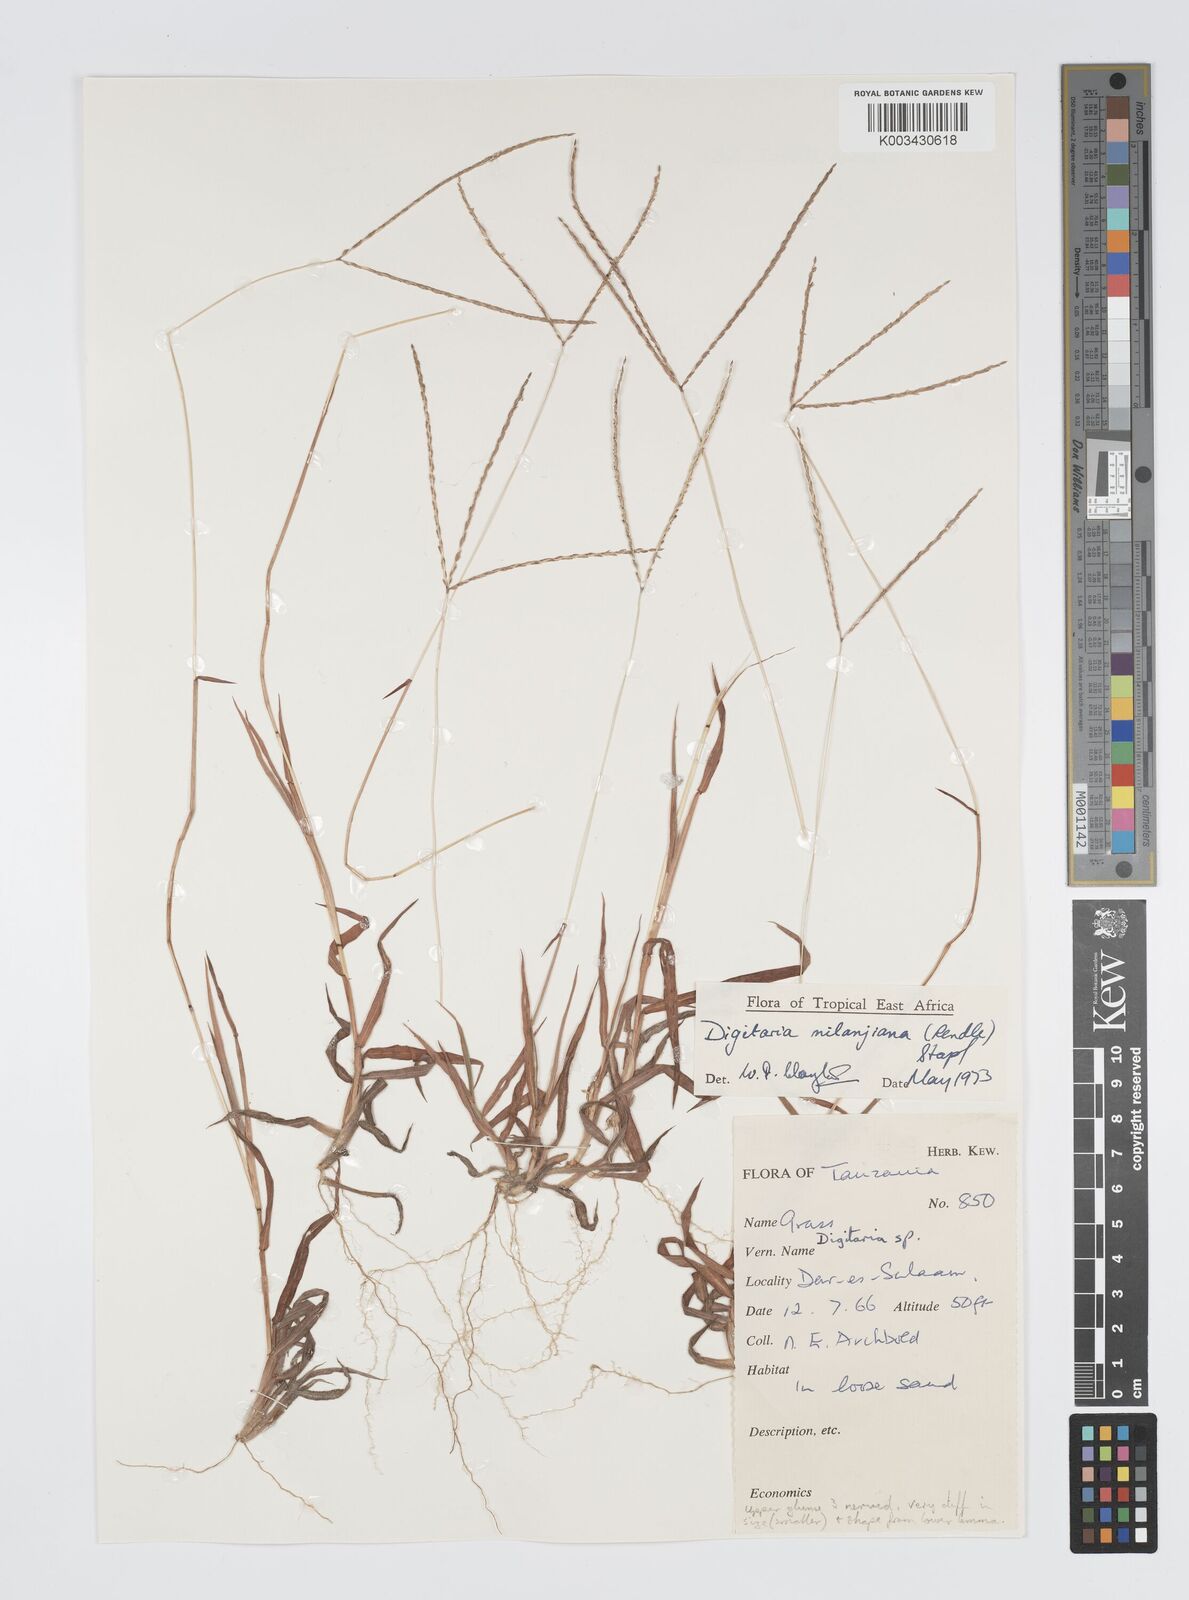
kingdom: Plantae
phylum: Tracheophyta
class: Liliopsida
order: Poales
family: Poaceae
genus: Digitaria
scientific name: Digitaria milanjiana
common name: Madagascar crabgrass
